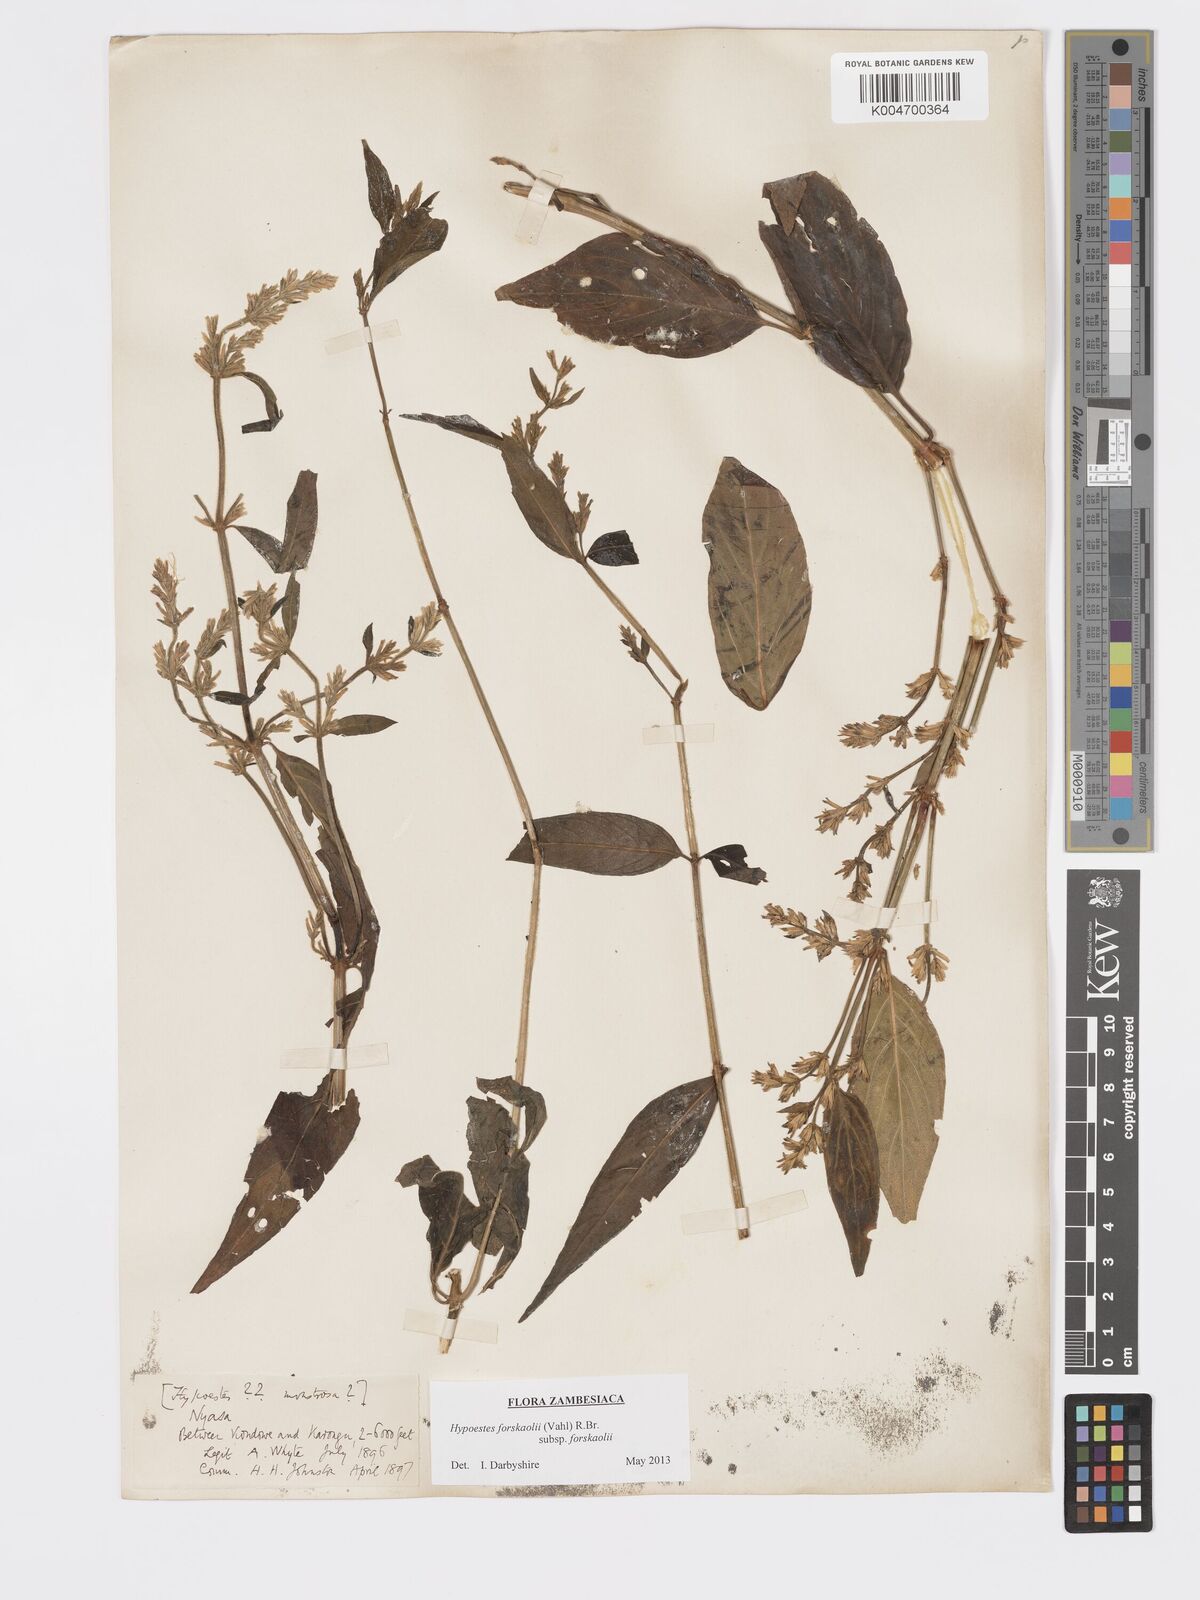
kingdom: Plantae
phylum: Tracheophyta
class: Magnoliopsida
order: Lamiales
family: Acanthaceae
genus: Hypoestes
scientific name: Hypoestes forskaolii
